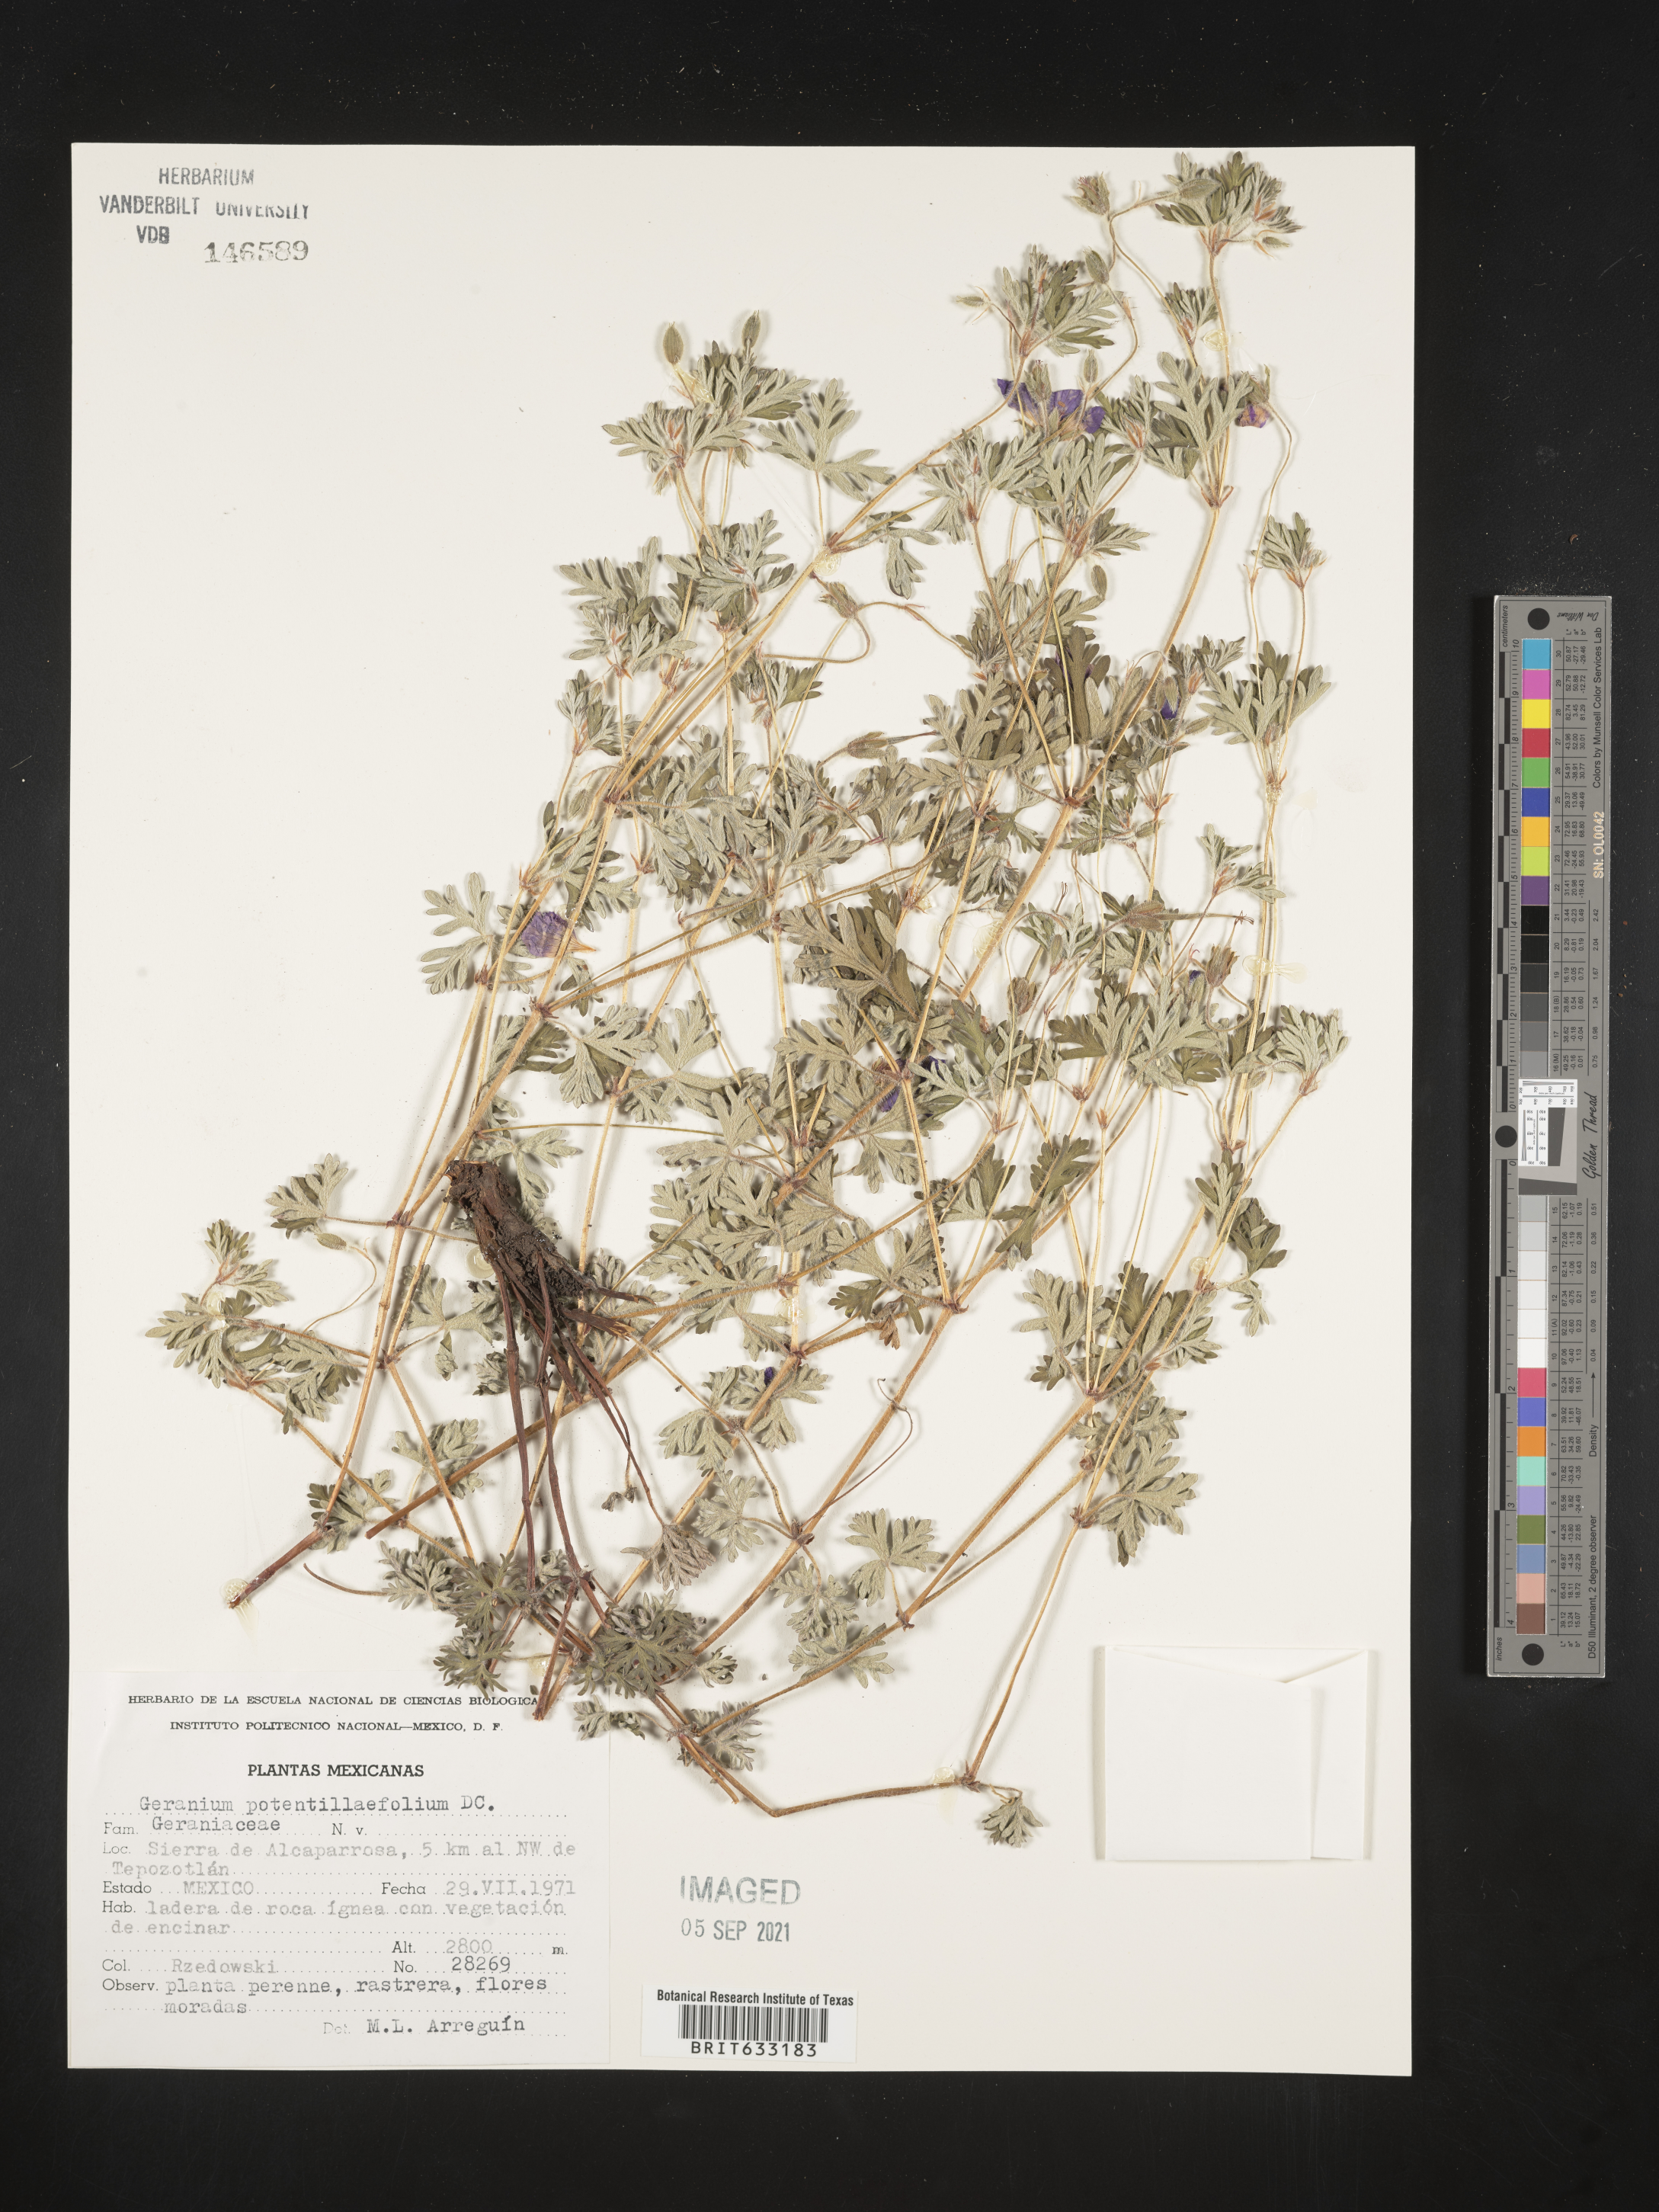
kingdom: Plantae
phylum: Tracheophyta
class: Magnoliopsida
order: Geraniales
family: Geraniaceae
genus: Geranium
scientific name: Geranium
